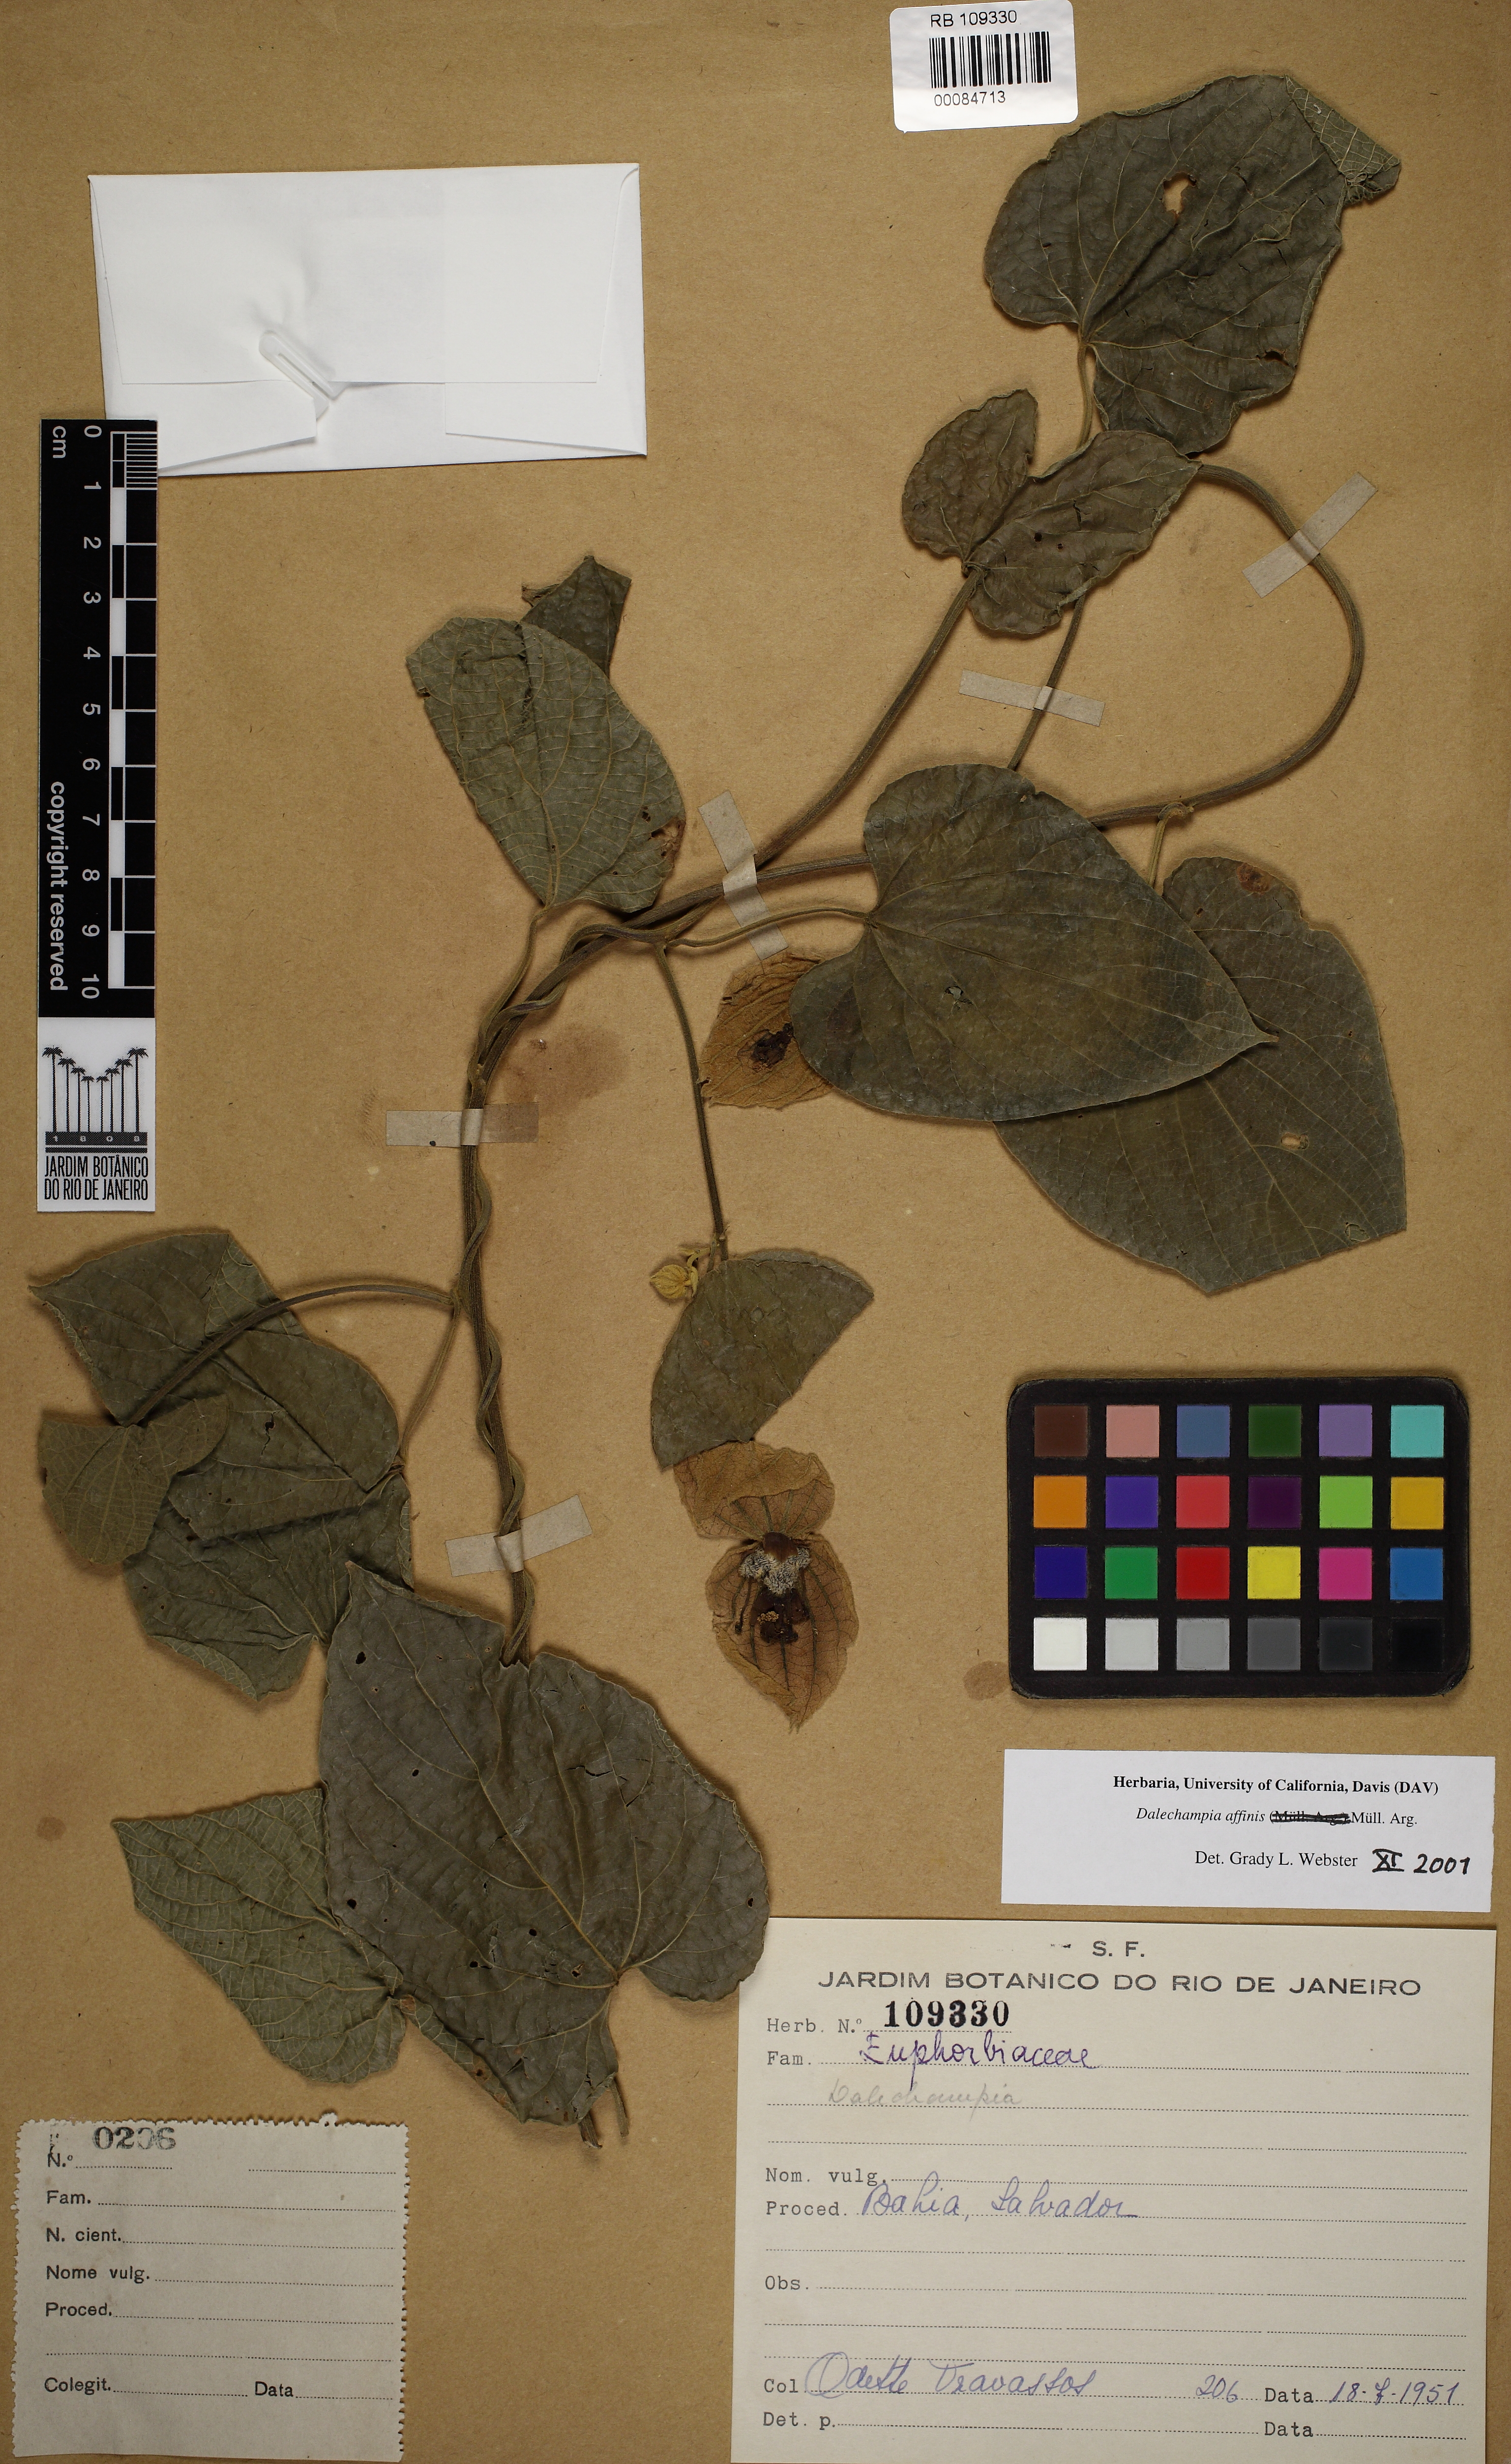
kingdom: Plantae
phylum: Tracheophyta
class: Magnoliopsida
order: Malpighiales
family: Euphorbiaceae
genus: Dalechampia
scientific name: Dalechampia affinis
